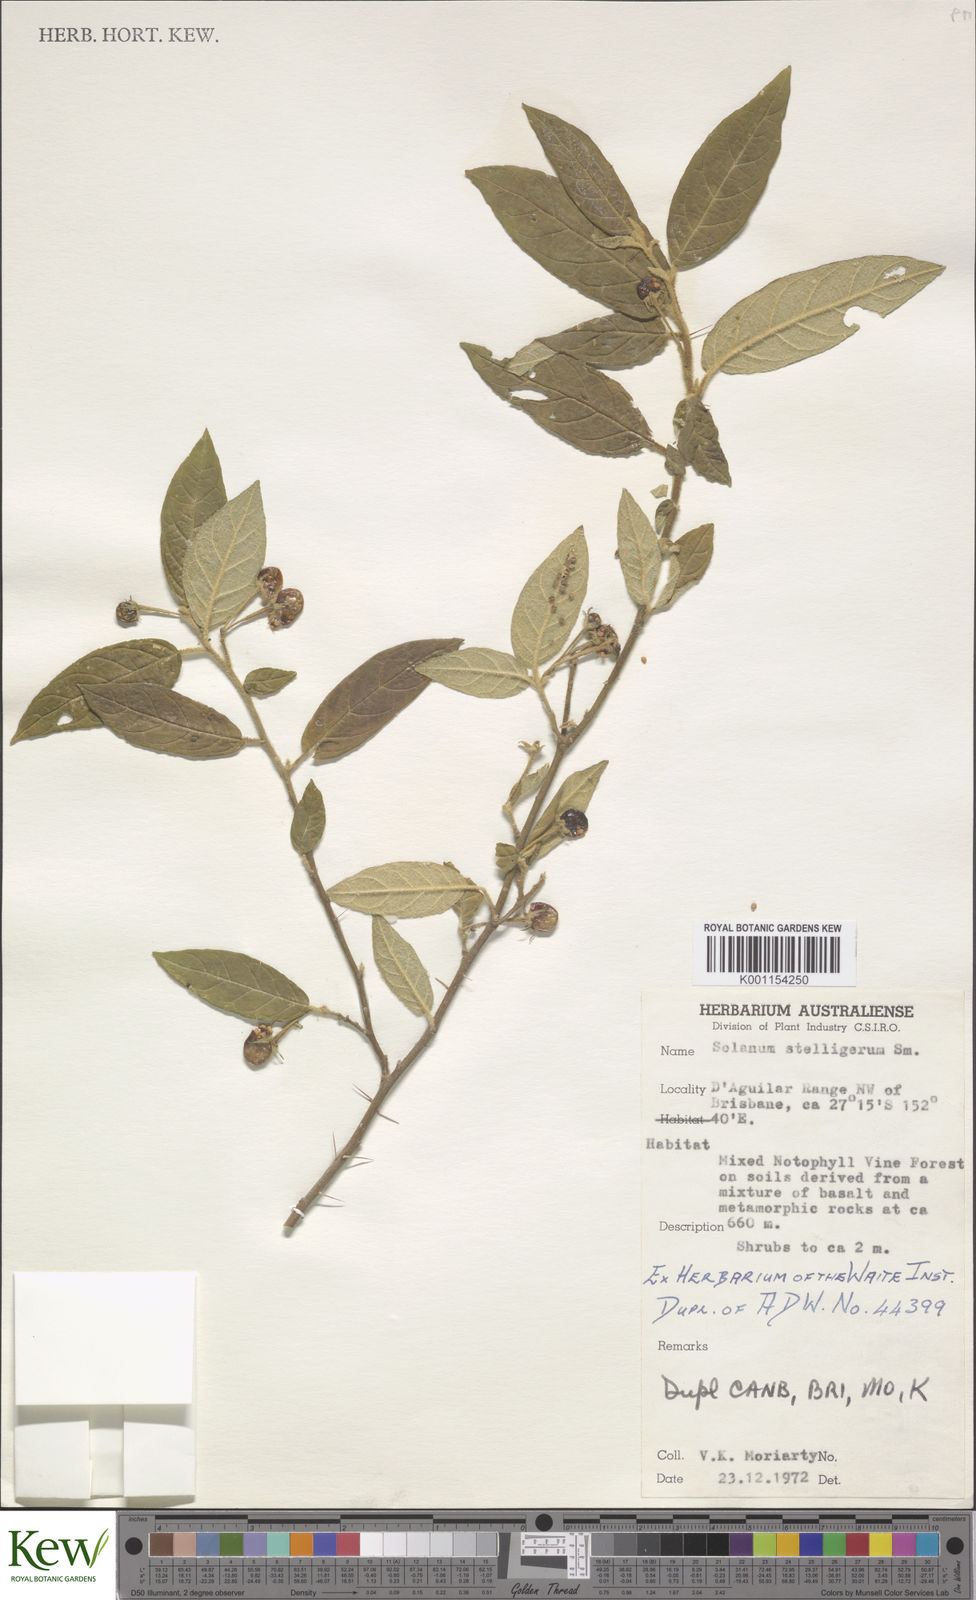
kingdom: Plantae
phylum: Tracheophyta
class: Magnoliopsida
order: Solanales
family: Solanaceae
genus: Solanum
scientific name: Solanum stelligerum
